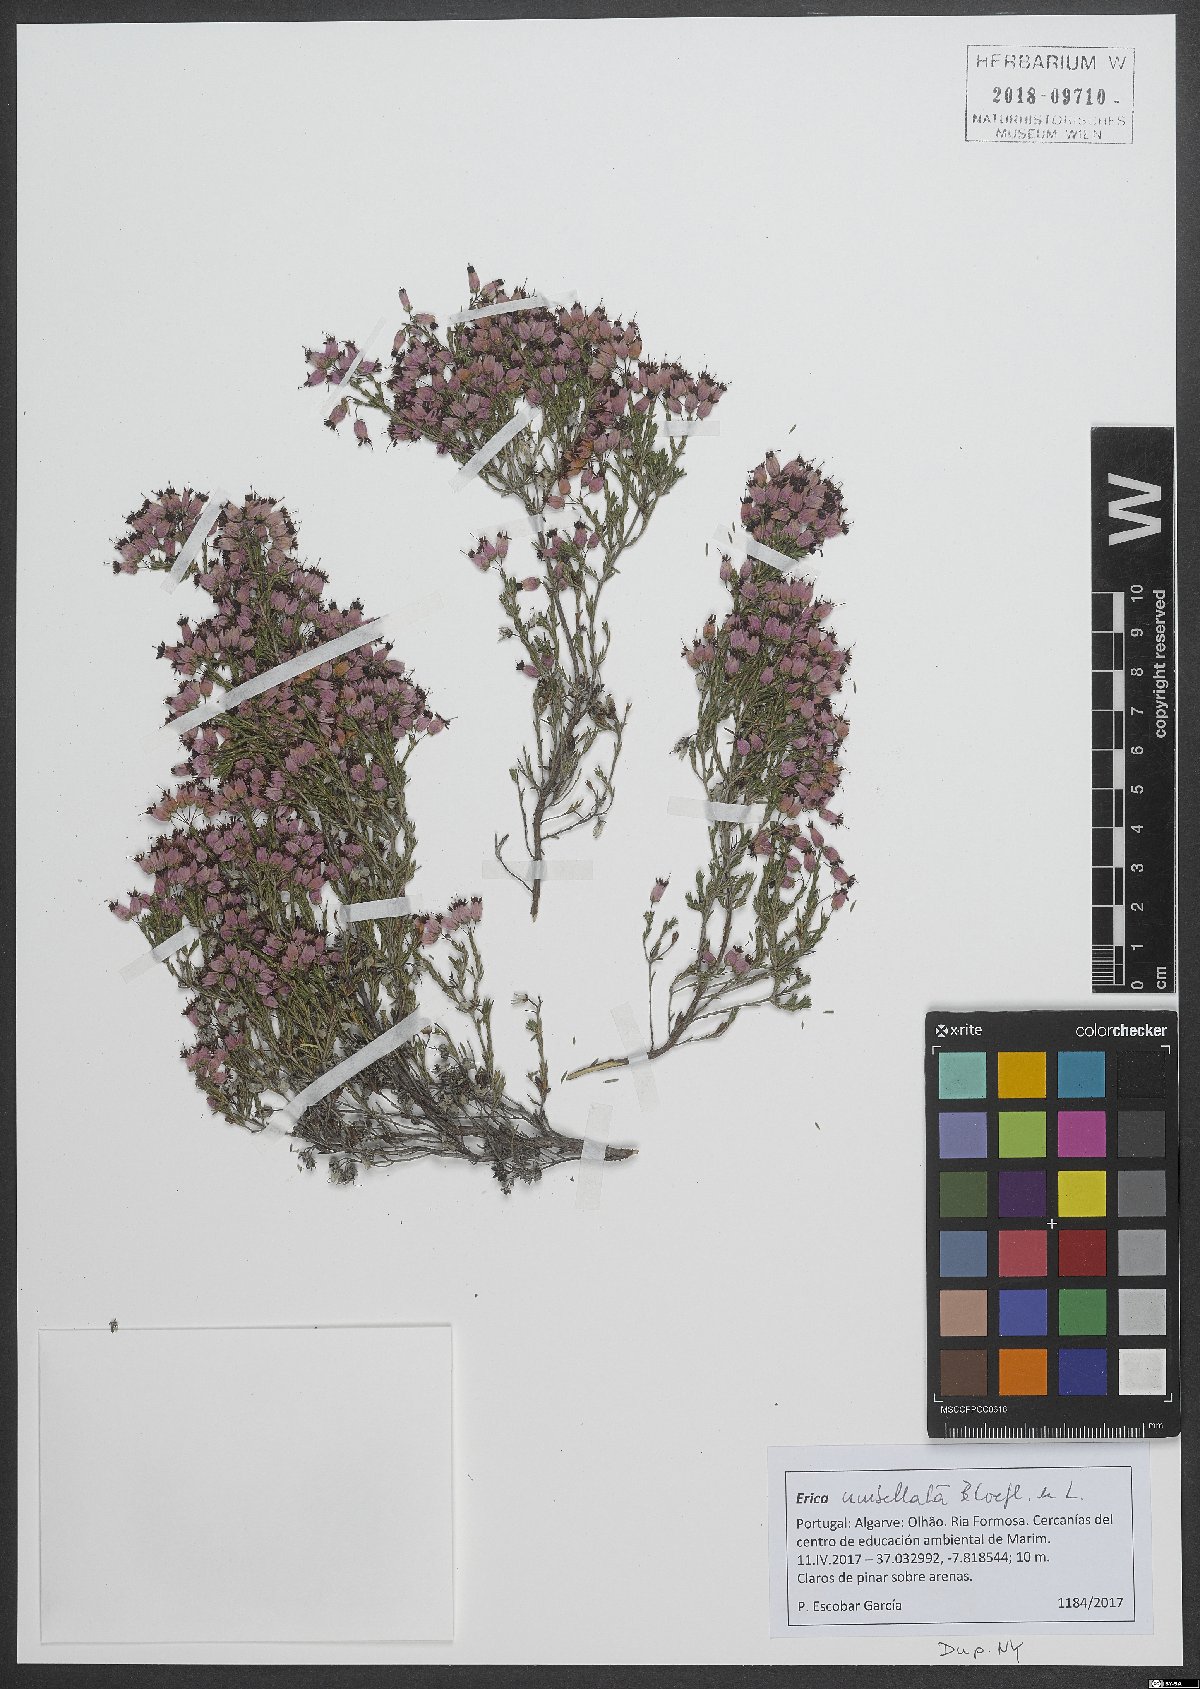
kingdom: Plantae
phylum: Tracheophyta
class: Magnoliopsida
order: Ericales
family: Ericaceae
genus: Erica
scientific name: Erica umbellata
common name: Dwarf spanish heath
